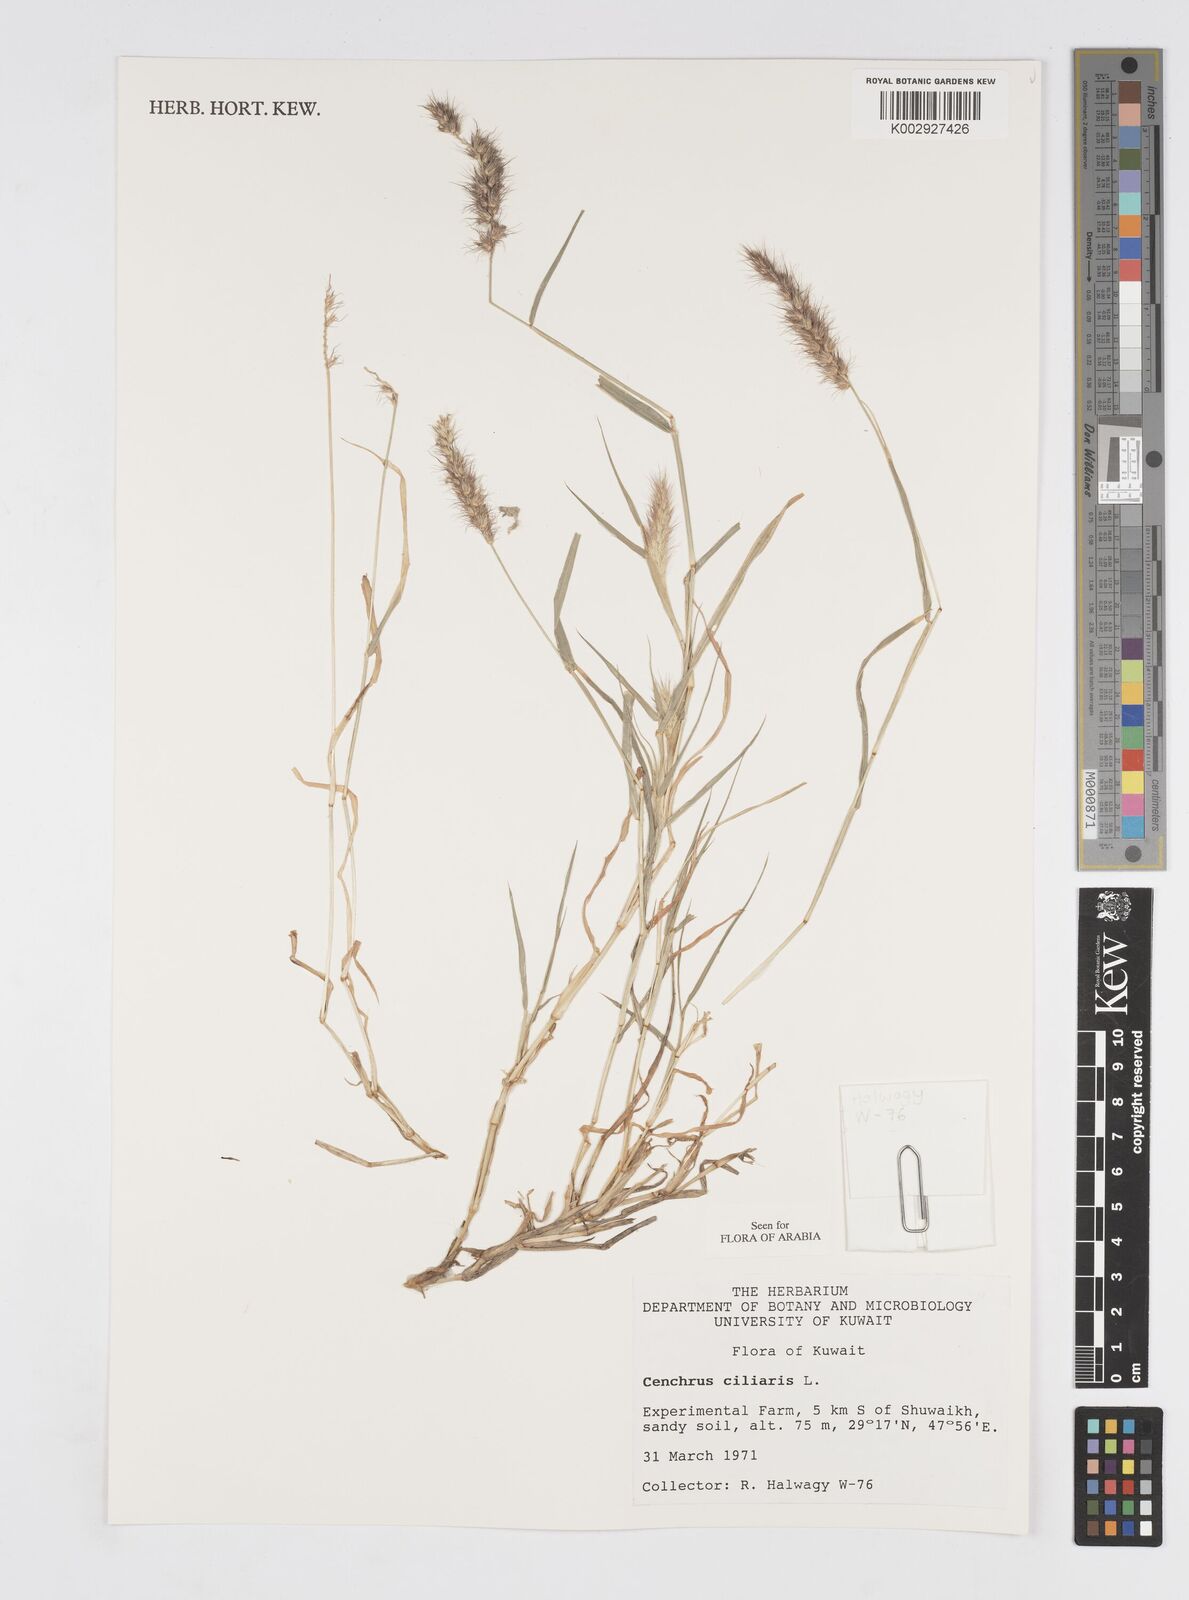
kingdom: Plantae
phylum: Tracheophyta
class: Liliopsida
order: Poales
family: Poaceae
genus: Cenchrus
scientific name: Cenchrus ciliaris
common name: Buffelgrass
